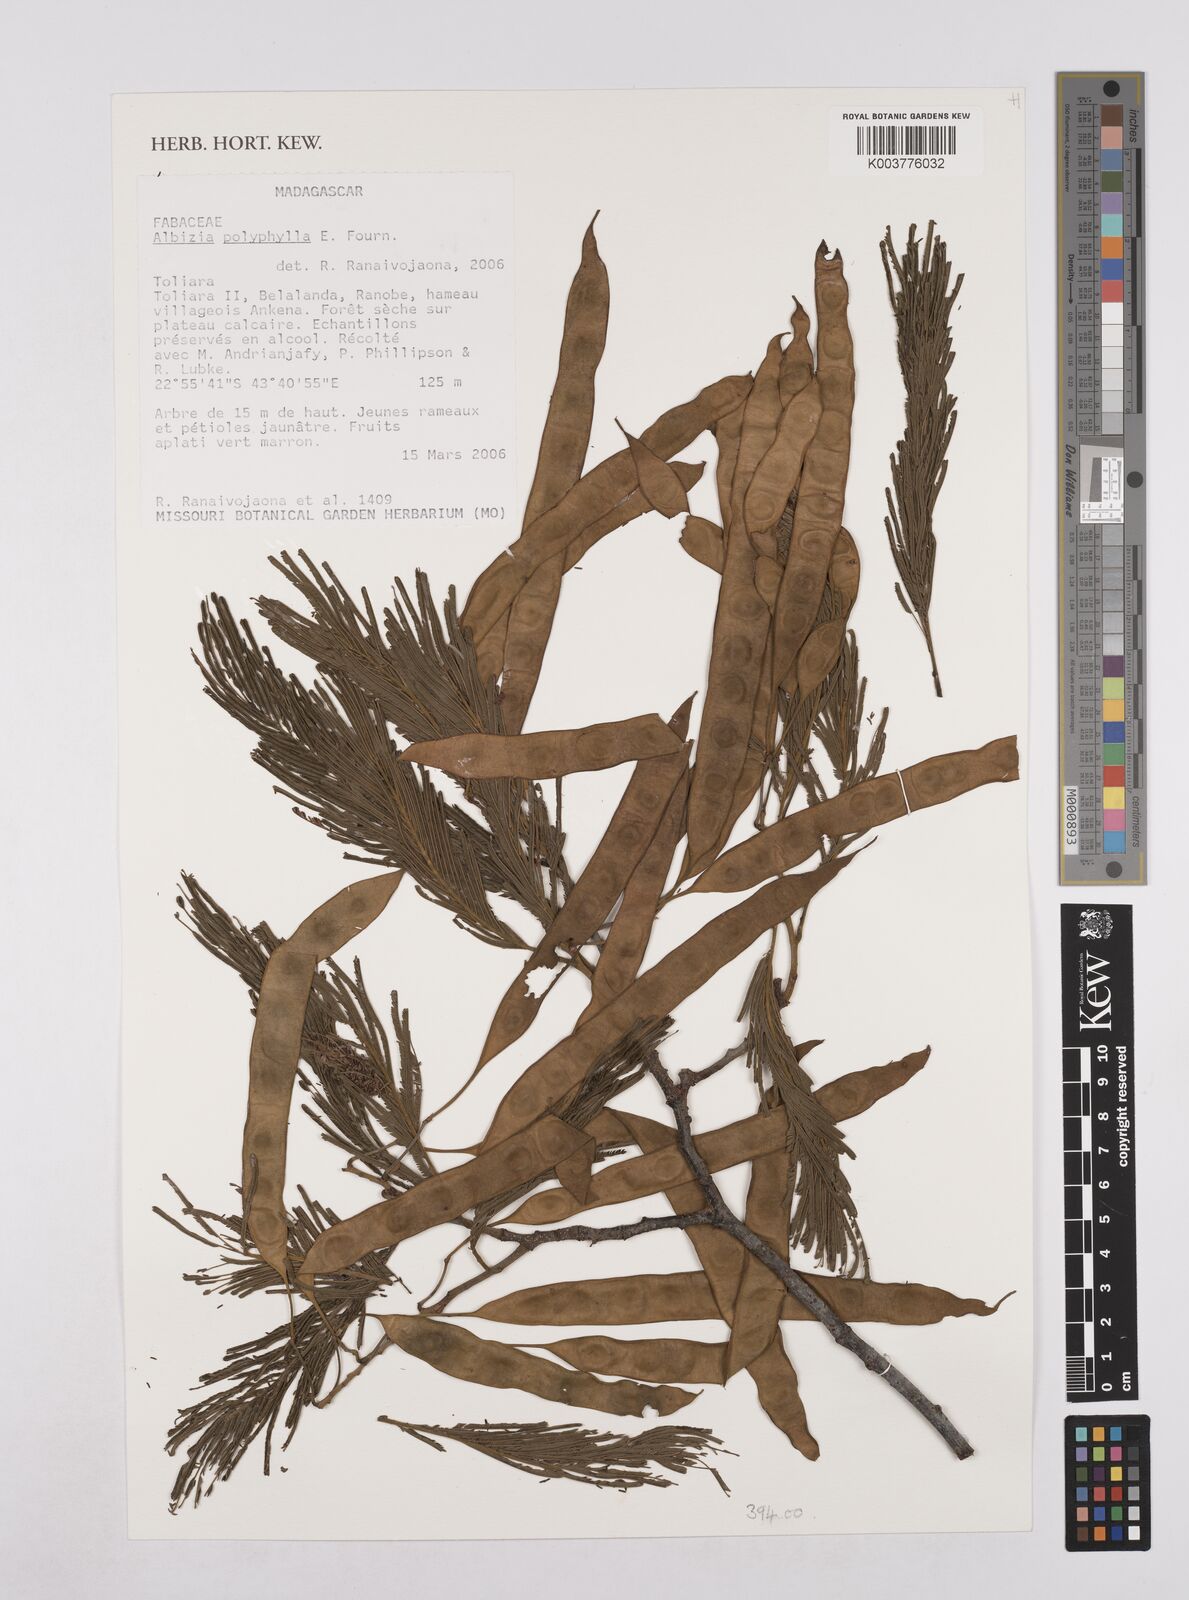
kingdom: Plantae
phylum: Tracheophyta
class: Magnoliopsida
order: Fabales
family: Fabaceae
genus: Albizia
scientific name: Albizia polyphylla
